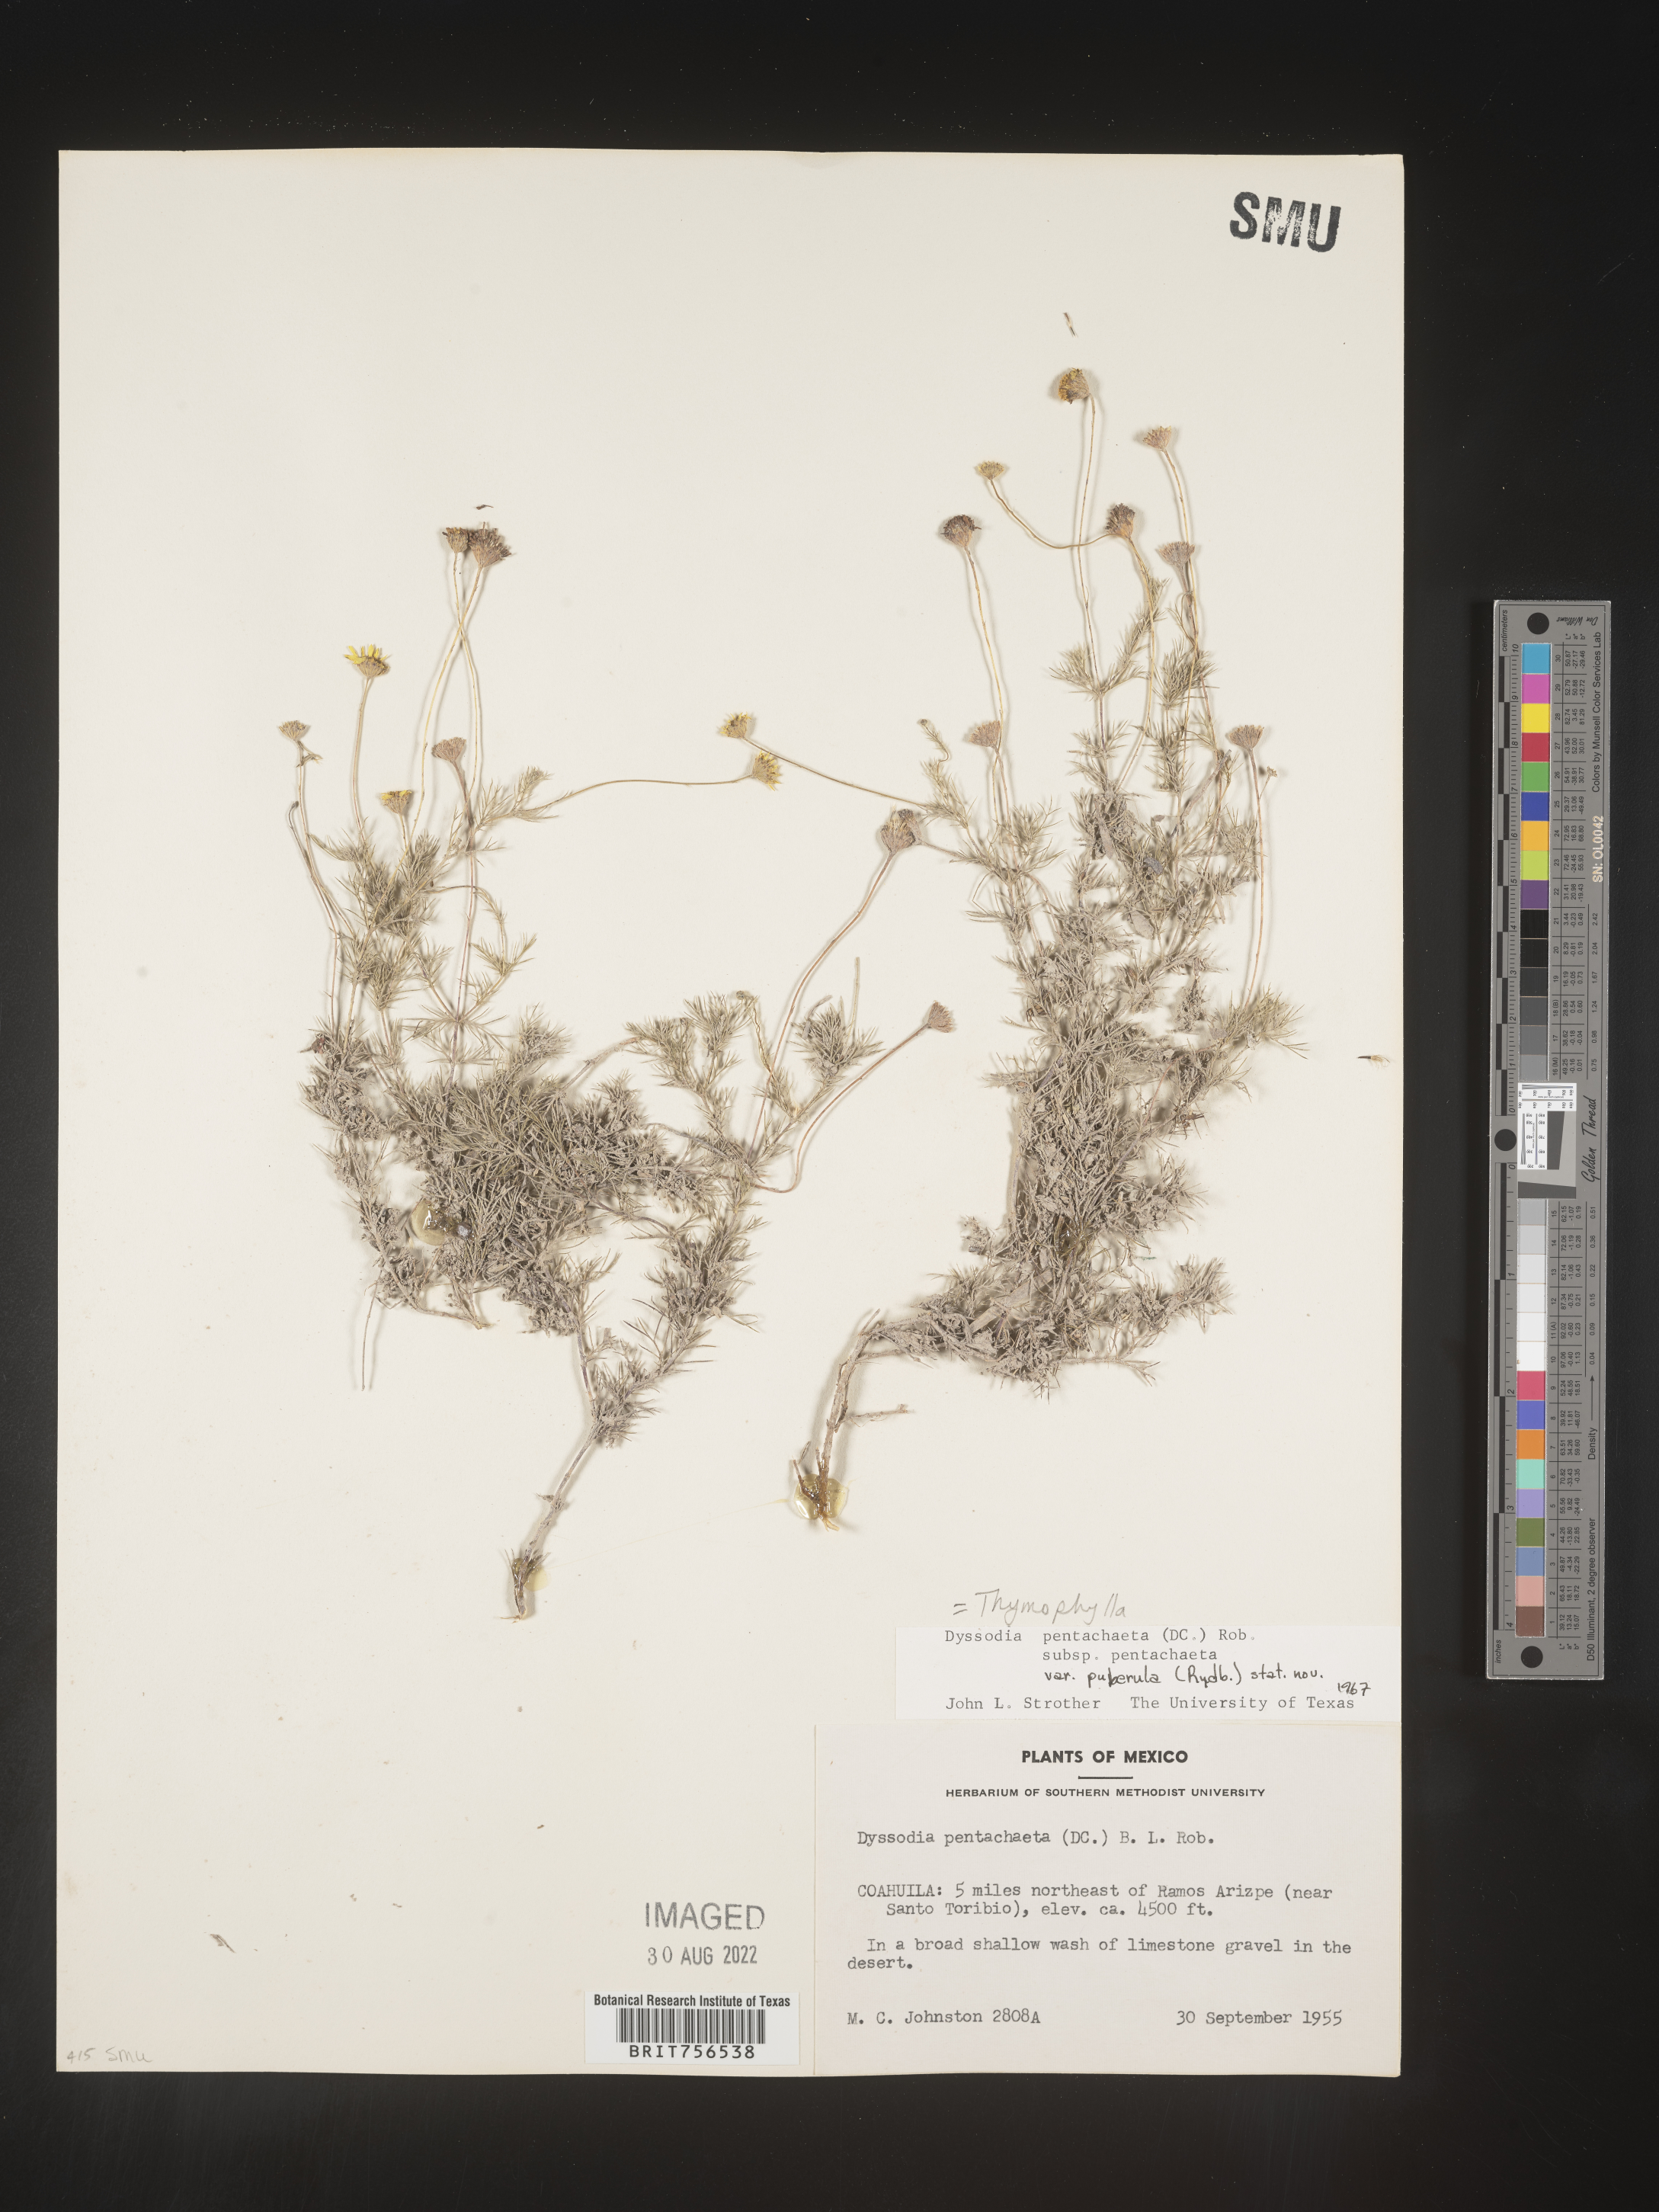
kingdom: Plantae
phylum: Tracheophyta
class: Magnoliopsida
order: Asterales
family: Asteraceae
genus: Thymophylla
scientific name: Thymophylla pentachaeta
